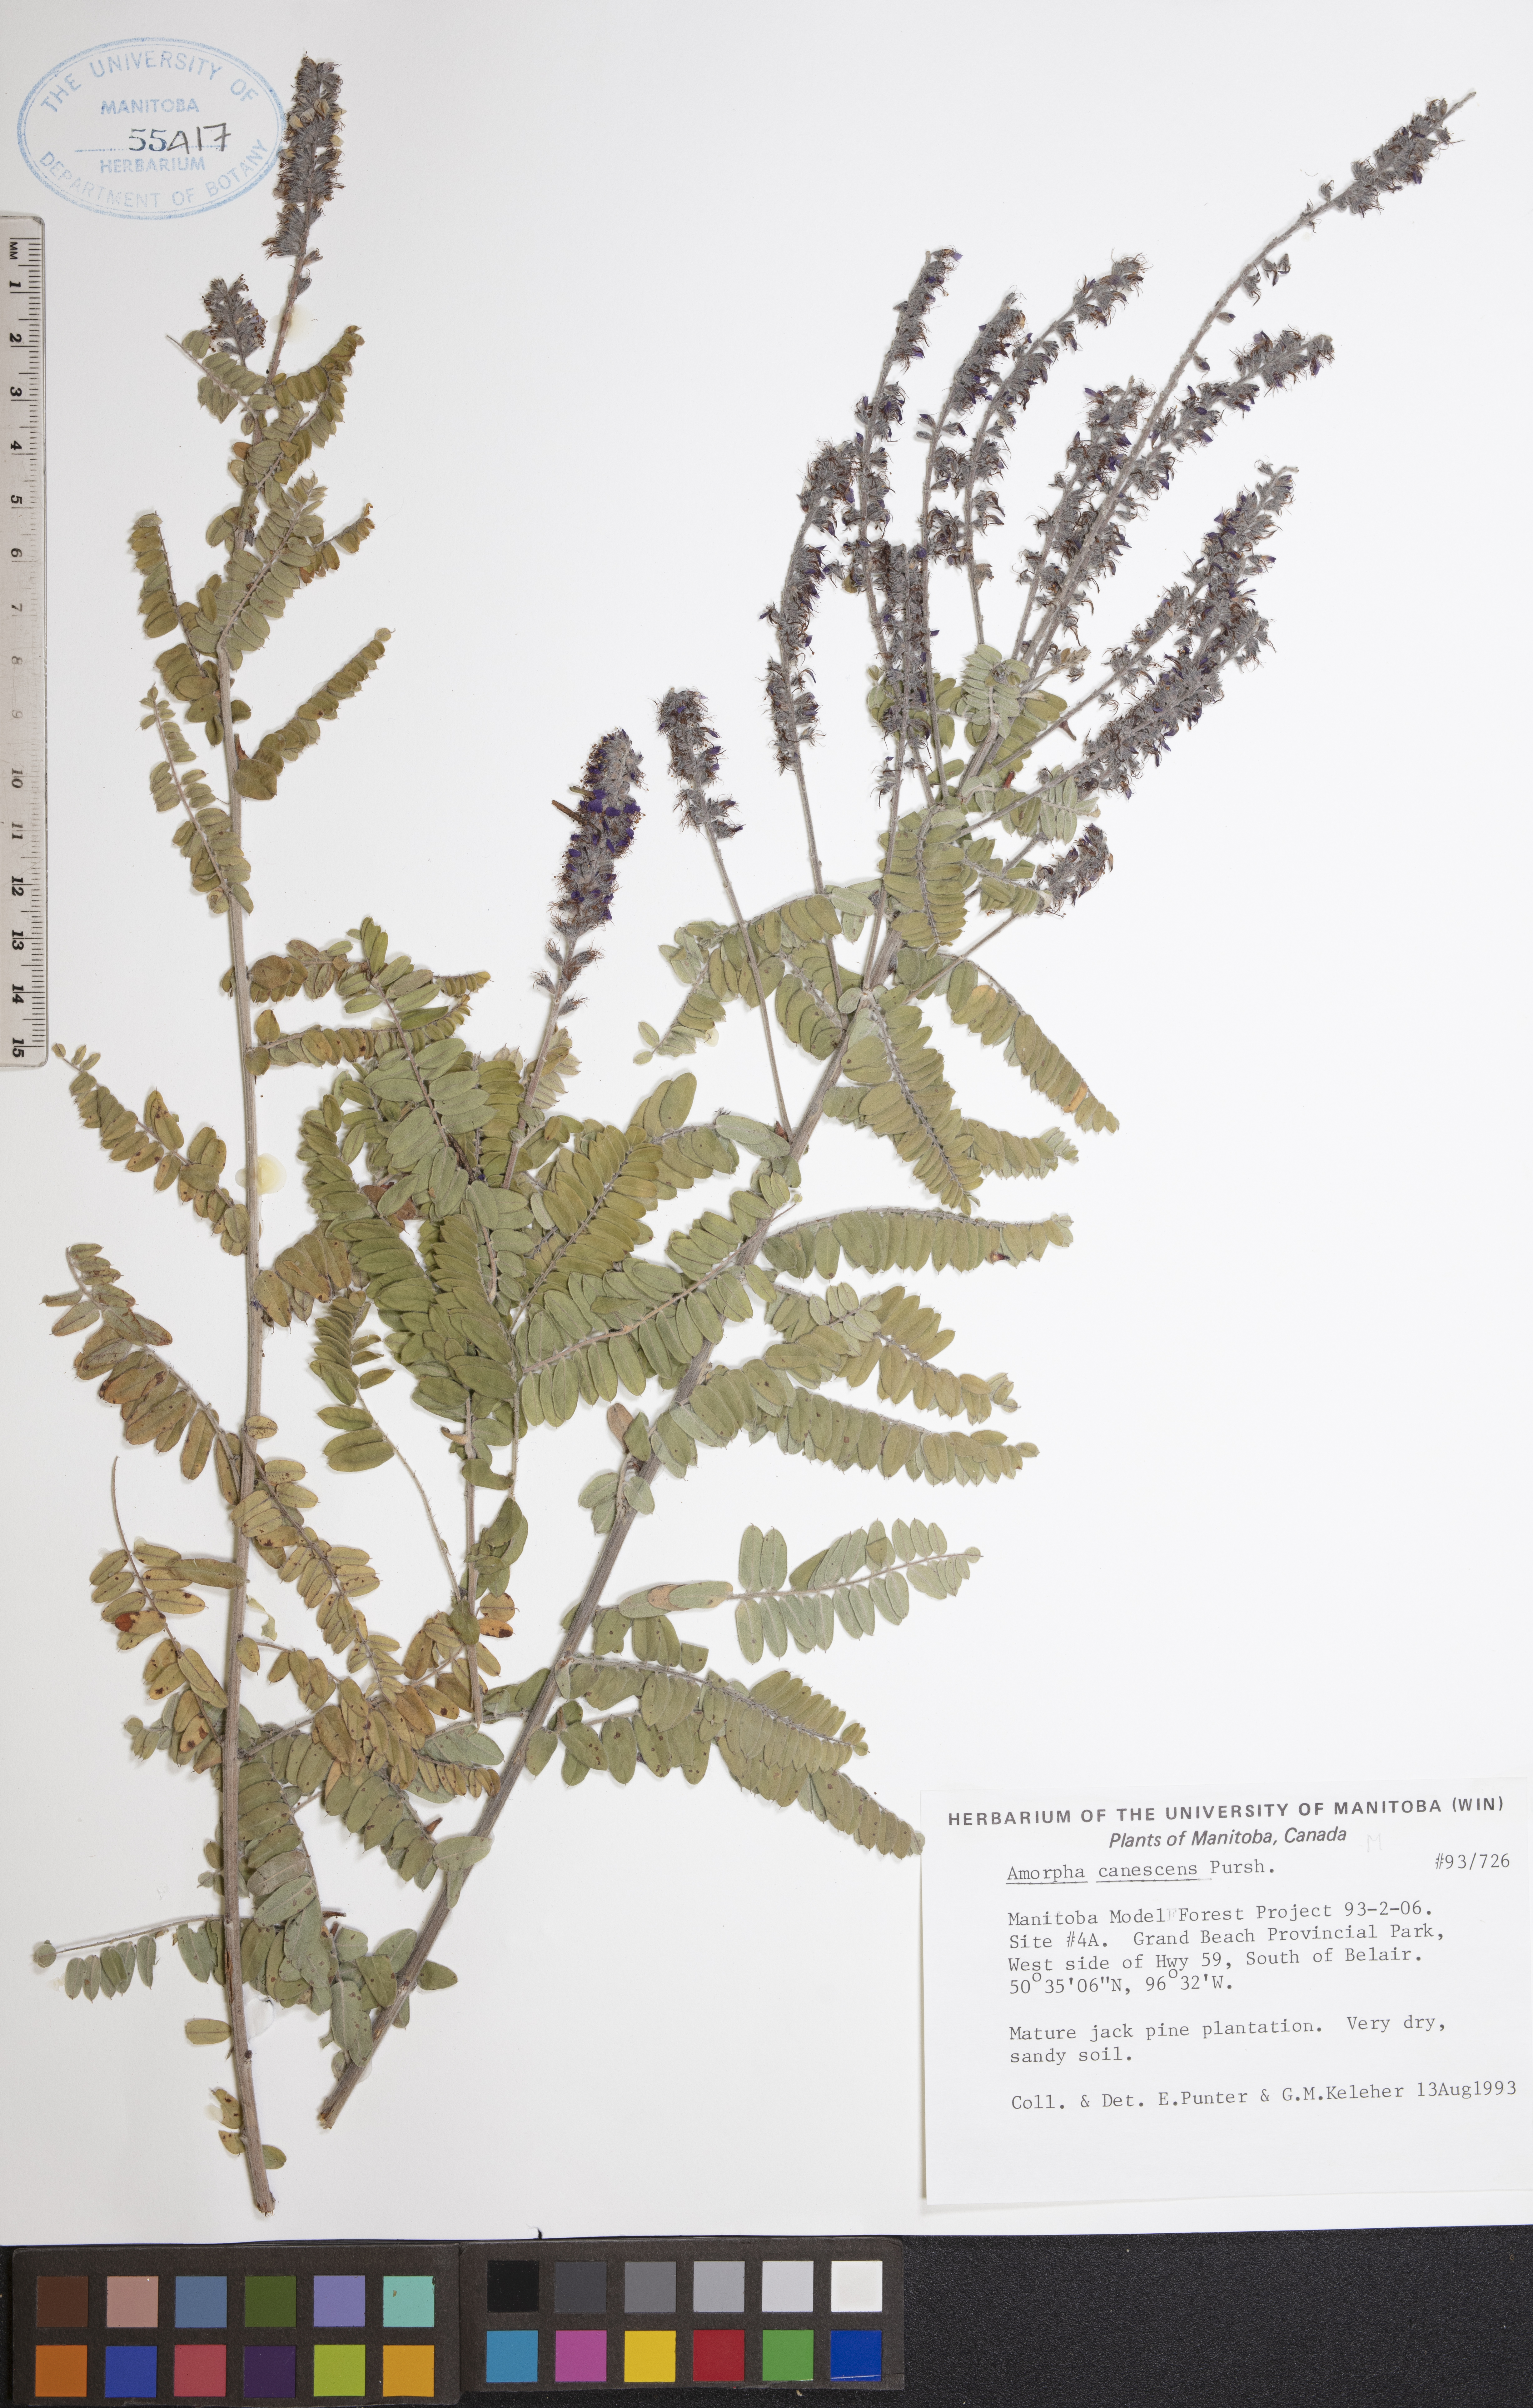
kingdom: Plantae
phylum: Tracheophyta
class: Magnoliopsida
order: Fabales
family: Fabaceae
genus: Amorpha
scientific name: Amorpha canescens
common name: Leadplant
